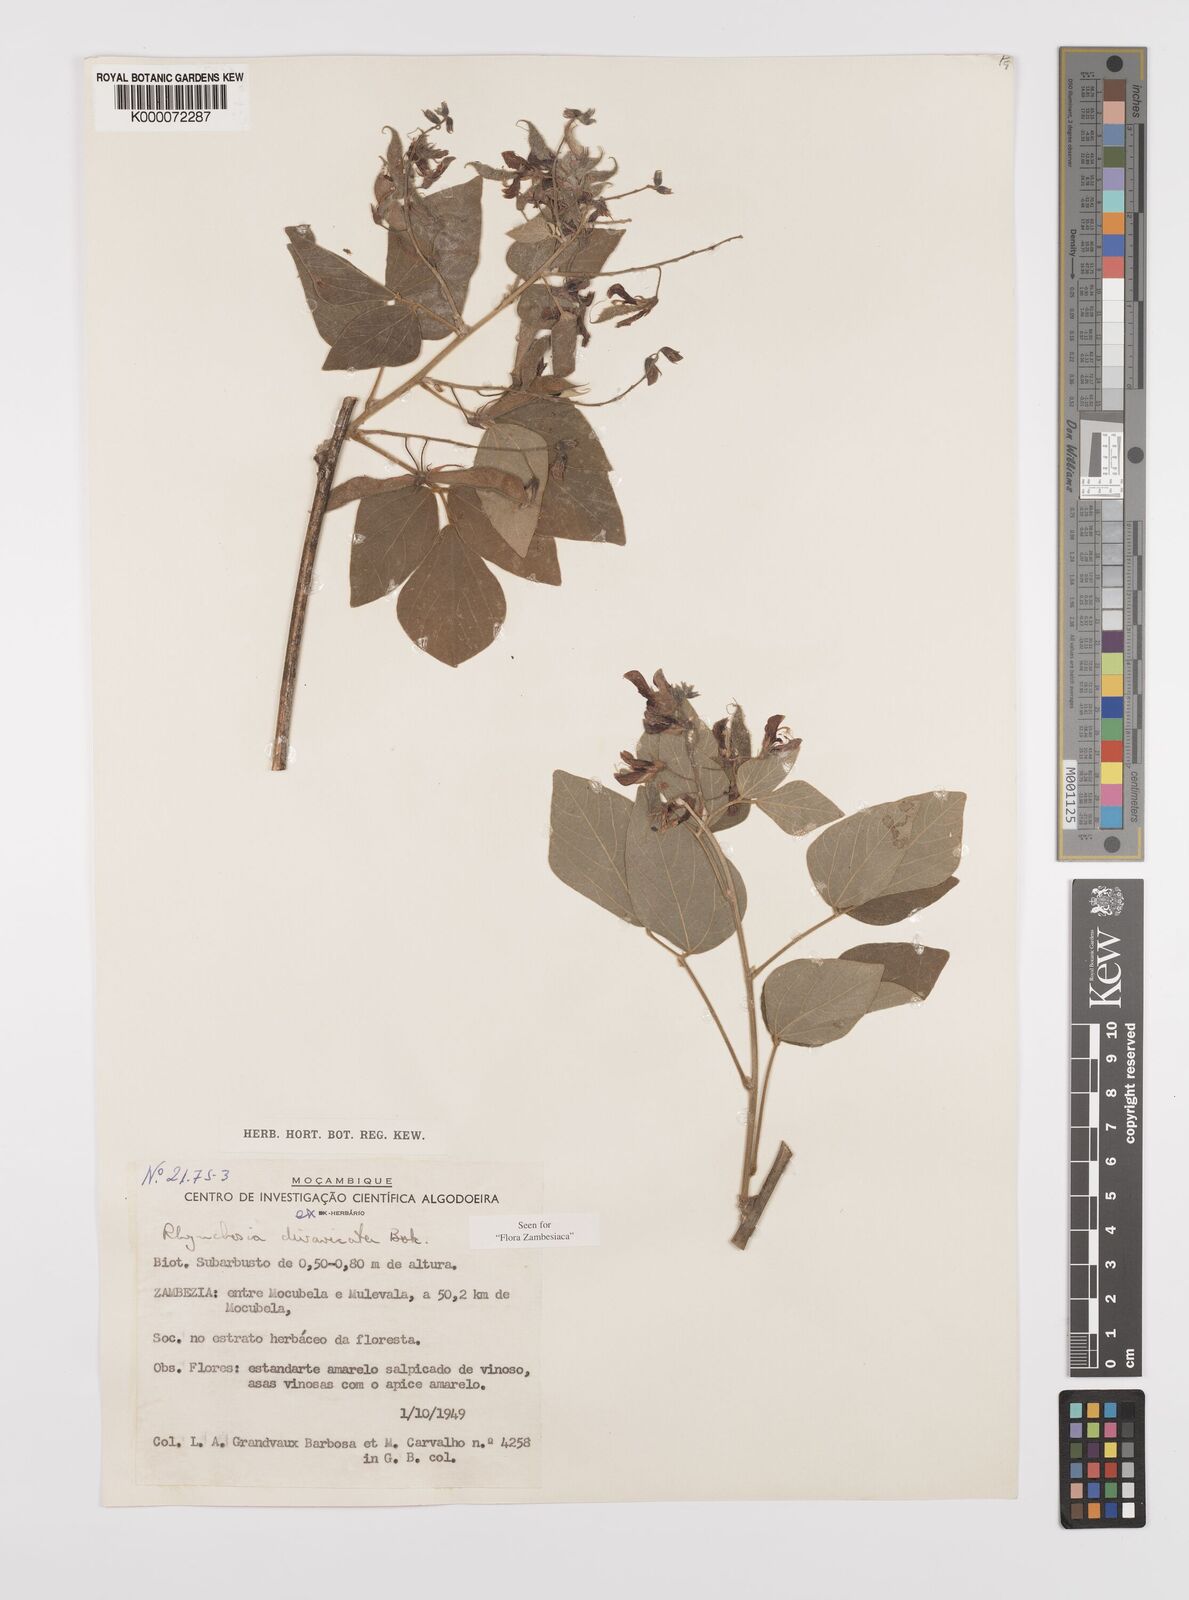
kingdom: Plantae
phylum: Tracheophyta
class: Magnoliopsida
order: Fabales
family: Fabaceae
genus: Rhynchosia
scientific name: Rhynchosia divaricata
